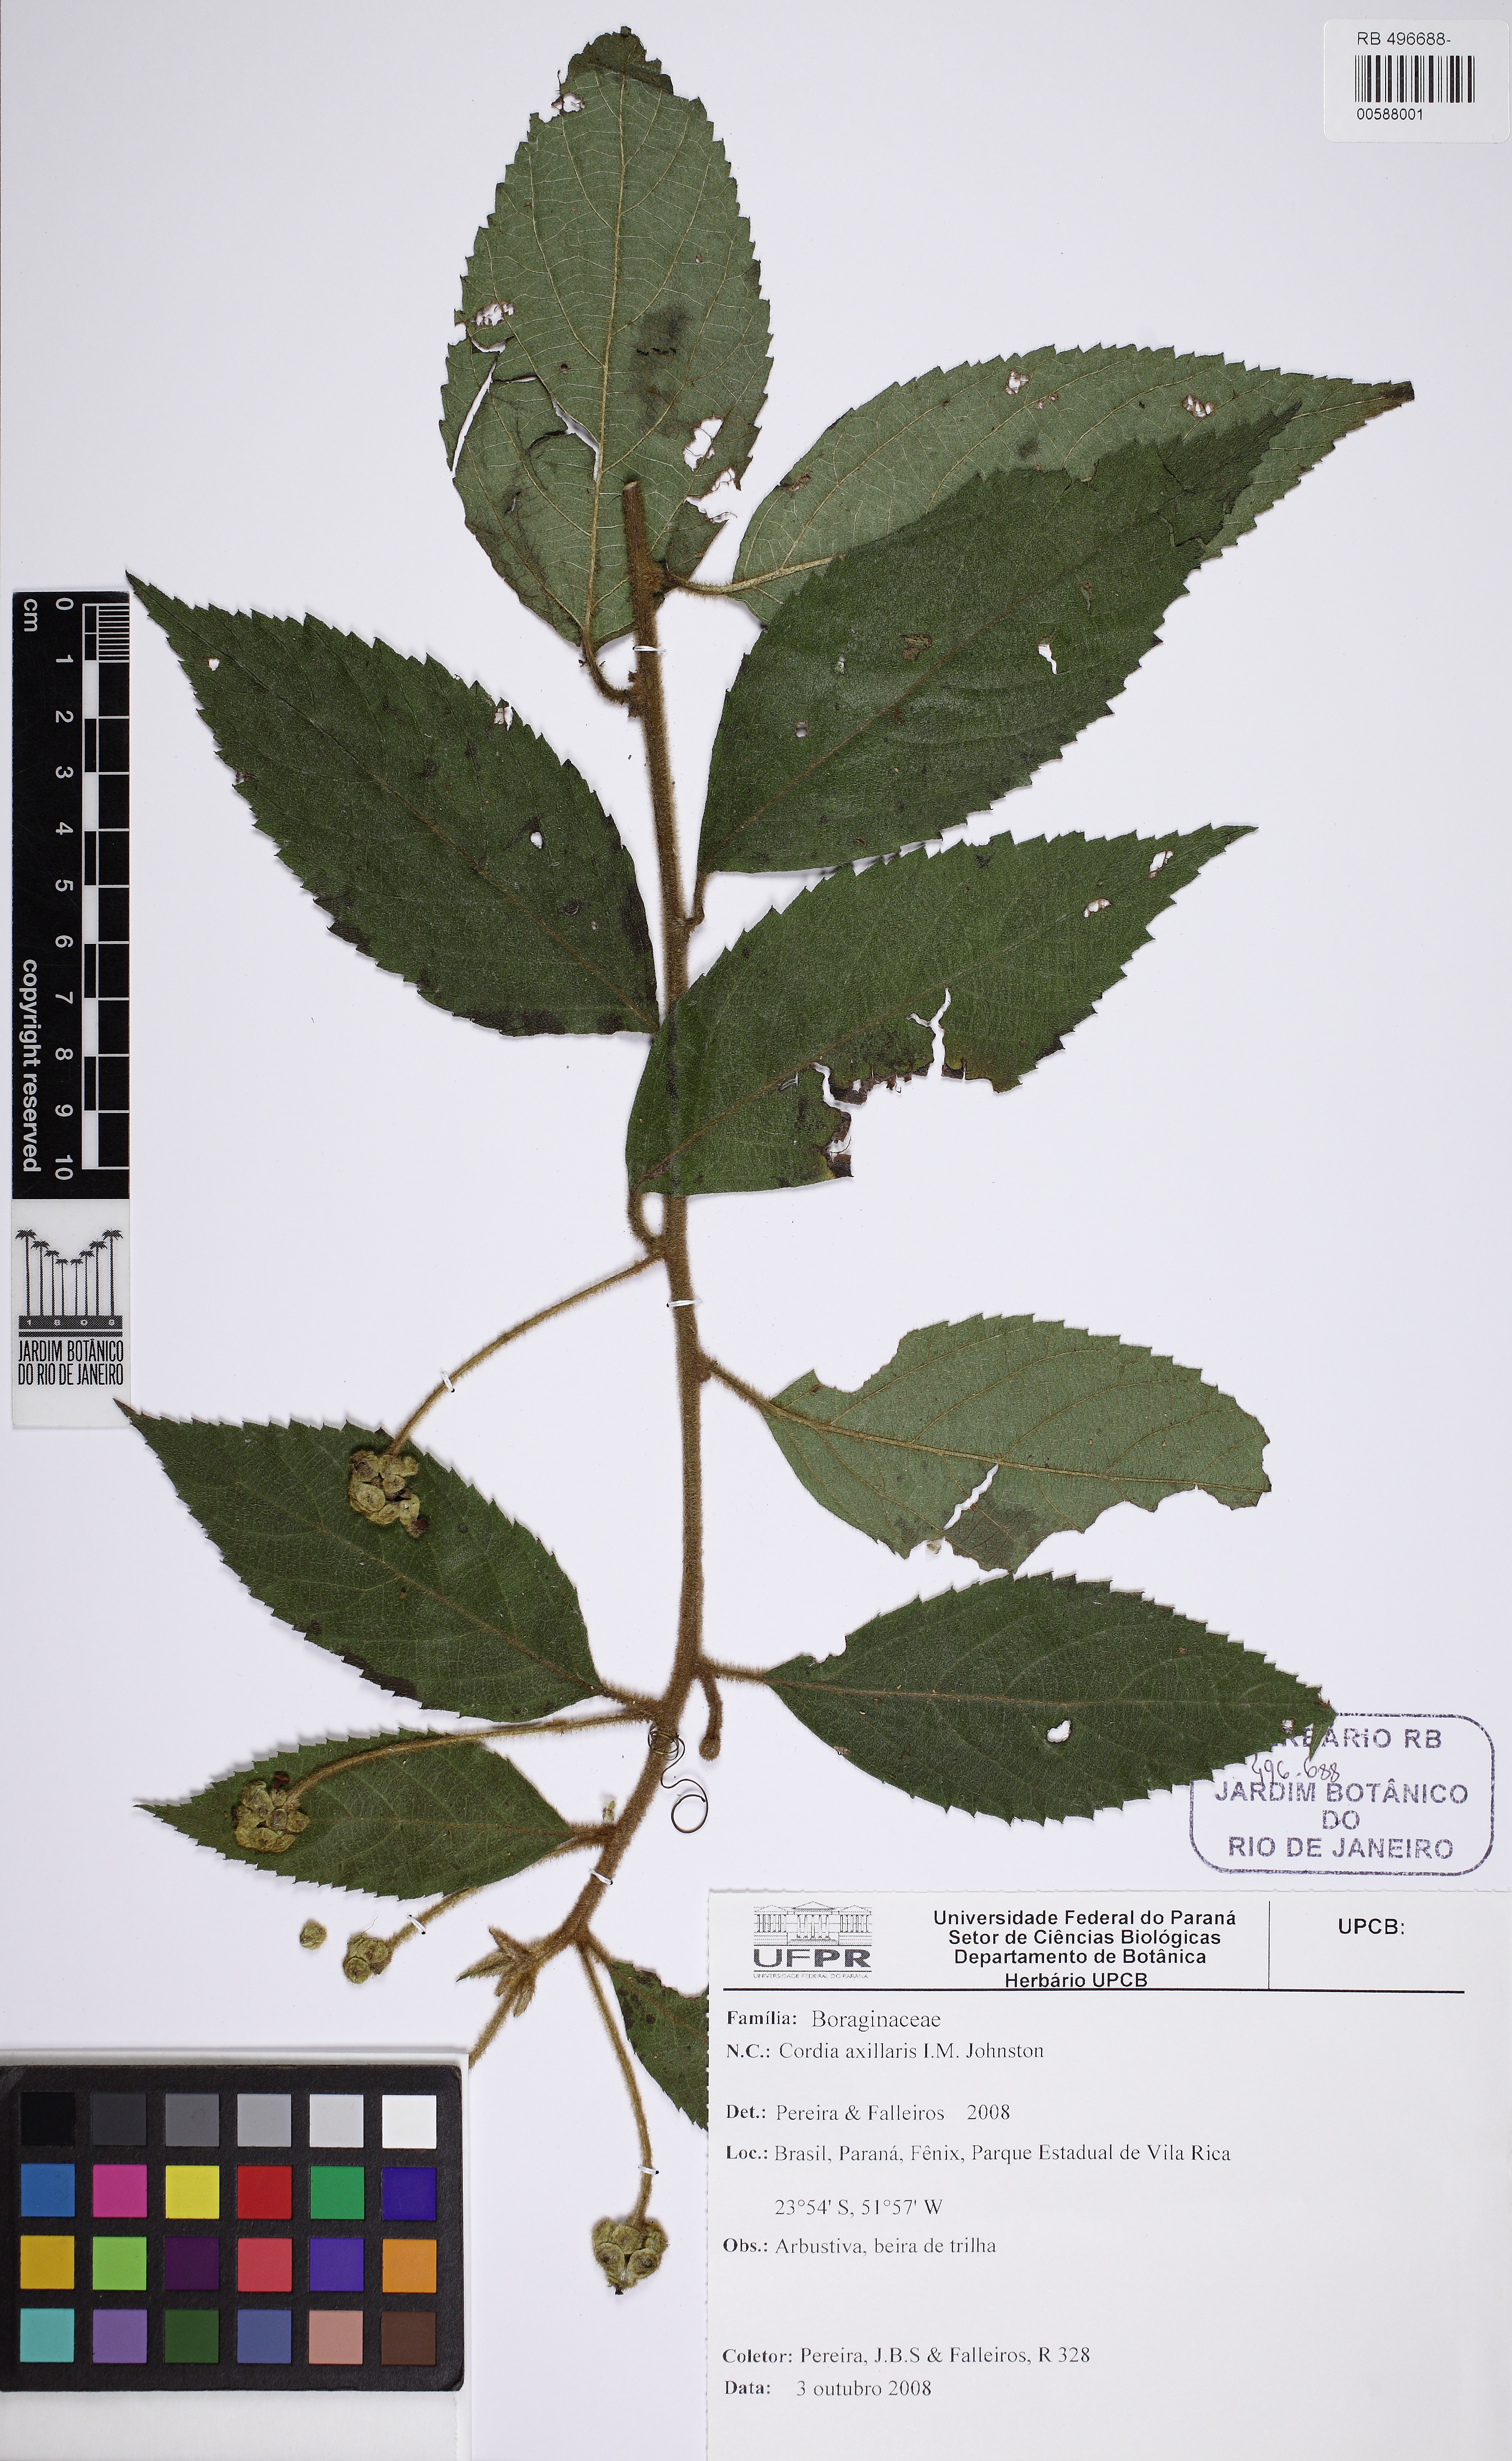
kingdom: Plantae
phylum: Tracheophyta
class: Magnoliopsida
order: Boraginales
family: Cordiaceae
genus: Varronia
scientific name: Varronia axillaris
